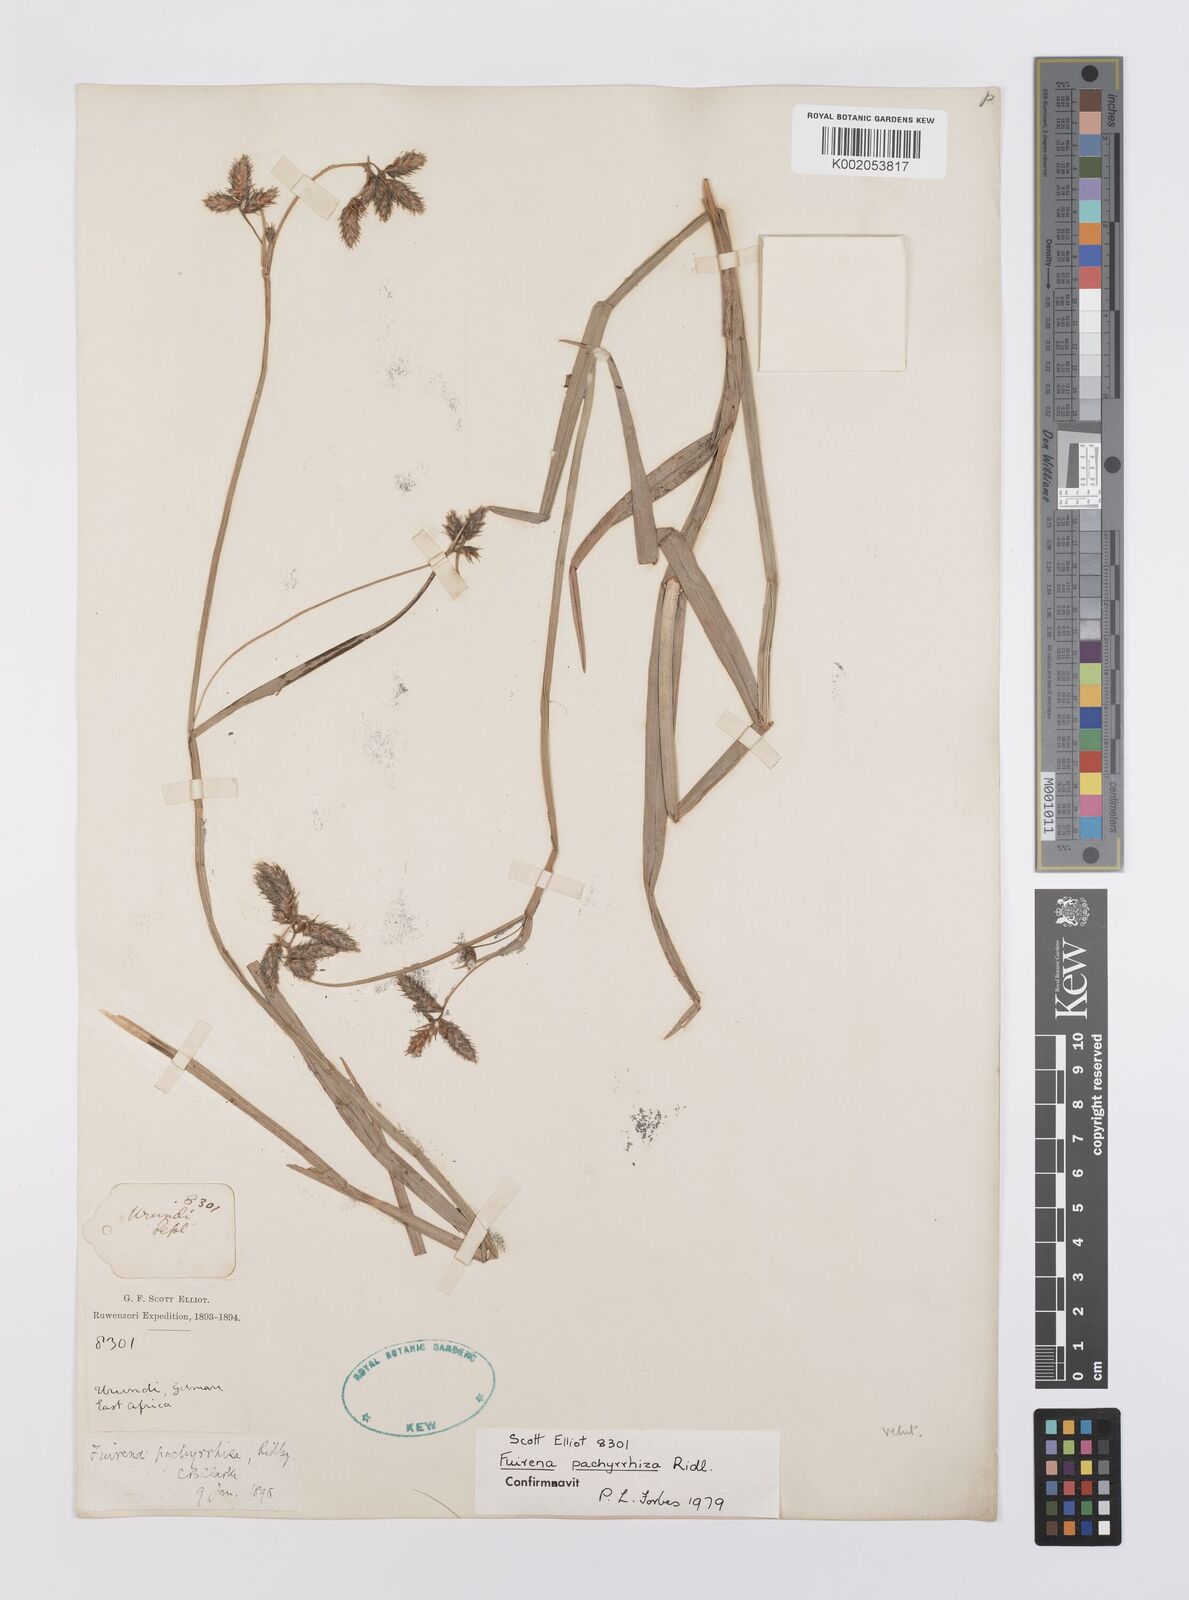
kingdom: Plantae
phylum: Tracheophyta
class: Liliopsida
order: Poales
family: Cyperaceae
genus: Fuirena
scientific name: Fuirena pachyrrhiza
